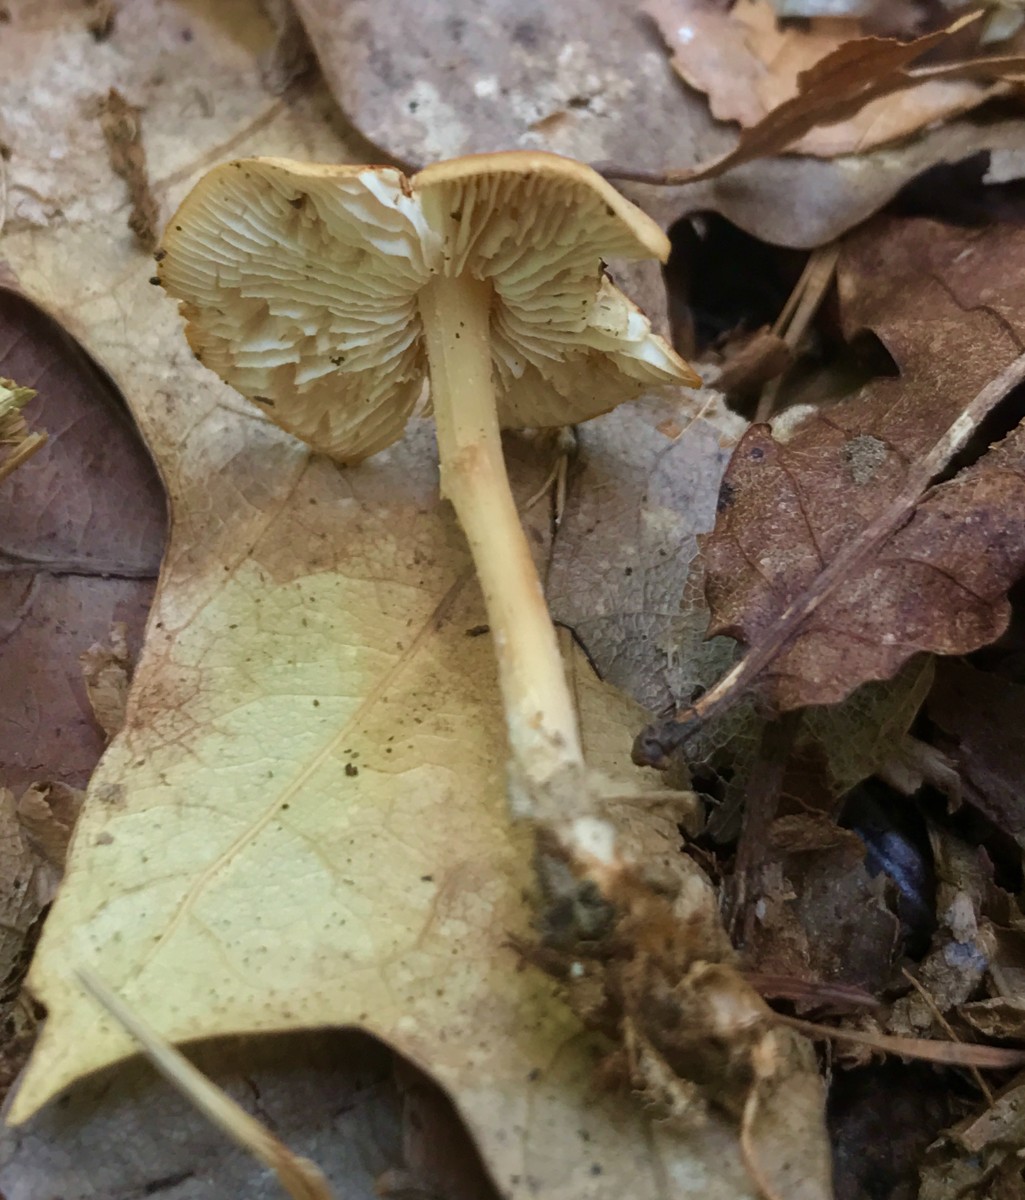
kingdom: Fungi
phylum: Basidiomycota
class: Agaricomycetes
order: Agaricales
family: Omphalotaceae
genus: Gymnopus
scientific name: Gymnopus dryophilus
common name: løv-fladhat
